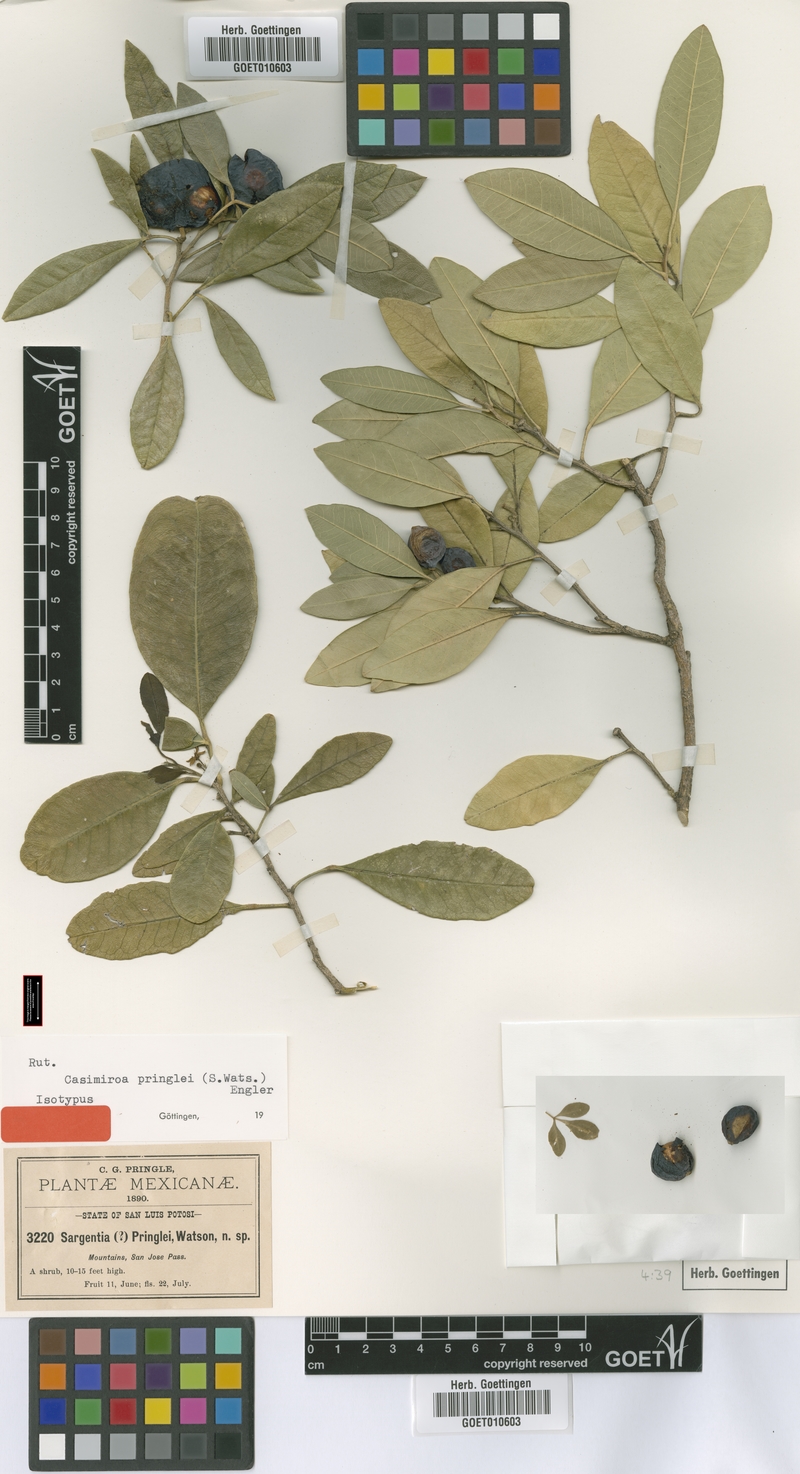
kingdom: Plantae
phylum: Tracheophyta
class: Magnoliopsida
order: Sapindales
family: Rutaceae
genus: Casimiroa
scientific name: Casimiroa pringlei
